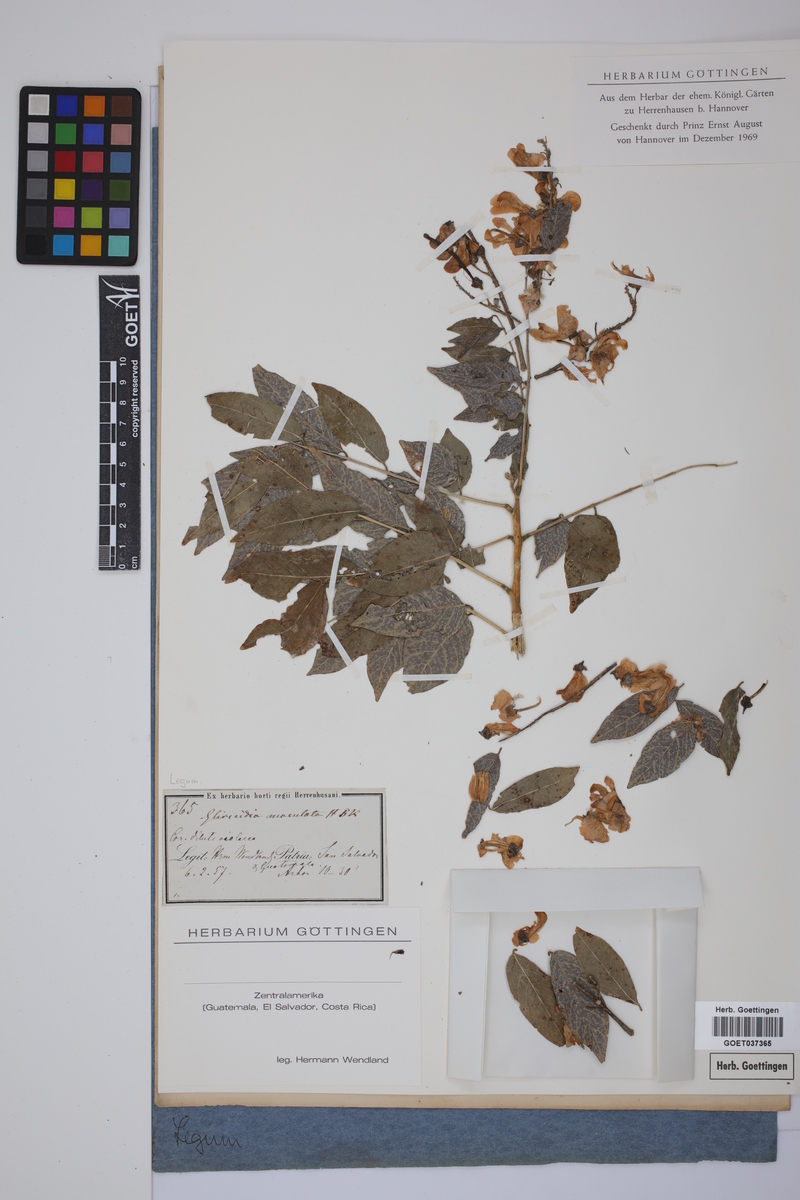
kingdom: Plantae
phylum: Tracheophyta
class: Magnoliopsida
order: Fabales
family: Fabaceae
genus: Gliricidia
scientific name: Gliricidia maculata
